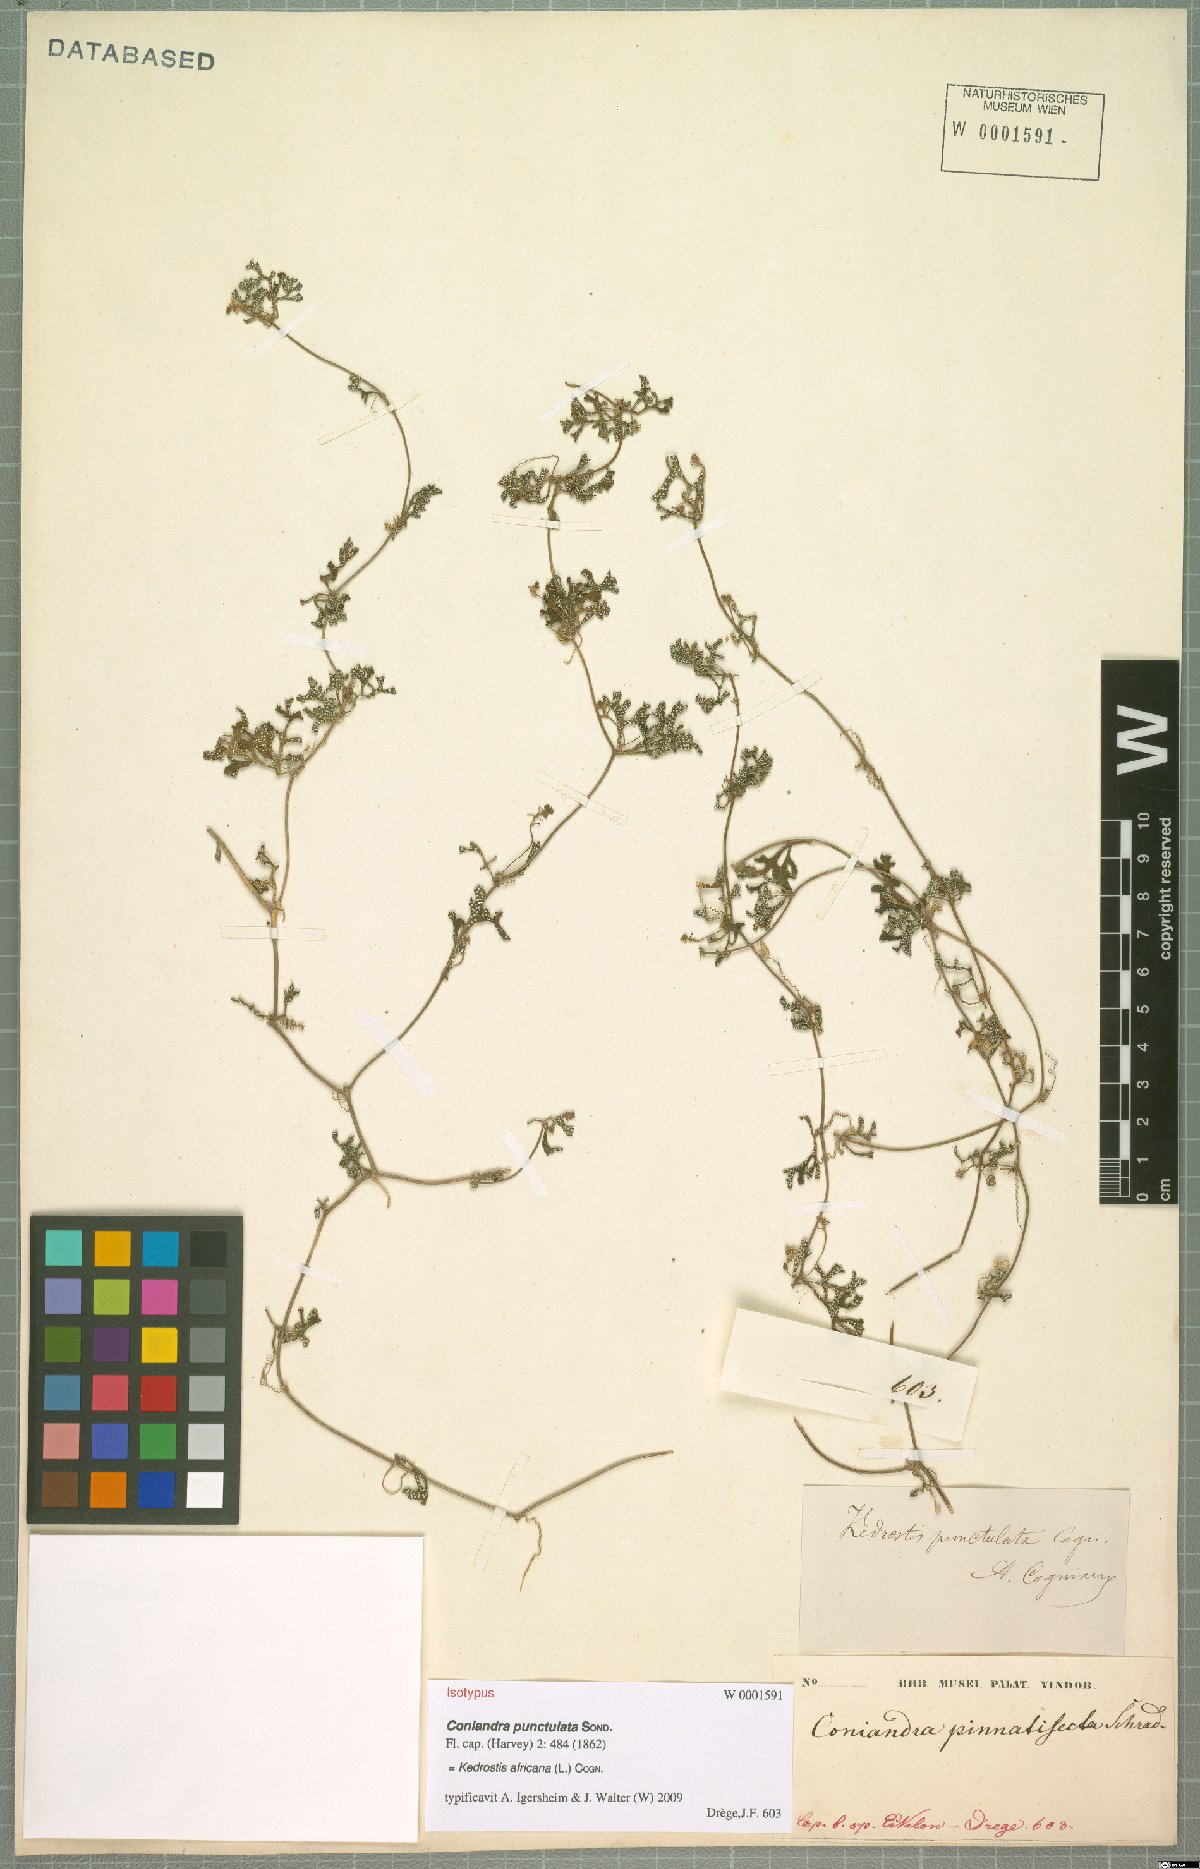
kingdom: Plantae
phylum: Tracheophyta
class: Magnoliopsida
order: Cucurbitales
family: Cucurbitaceae
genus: Kedrostis
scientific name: Kedrostis africana
